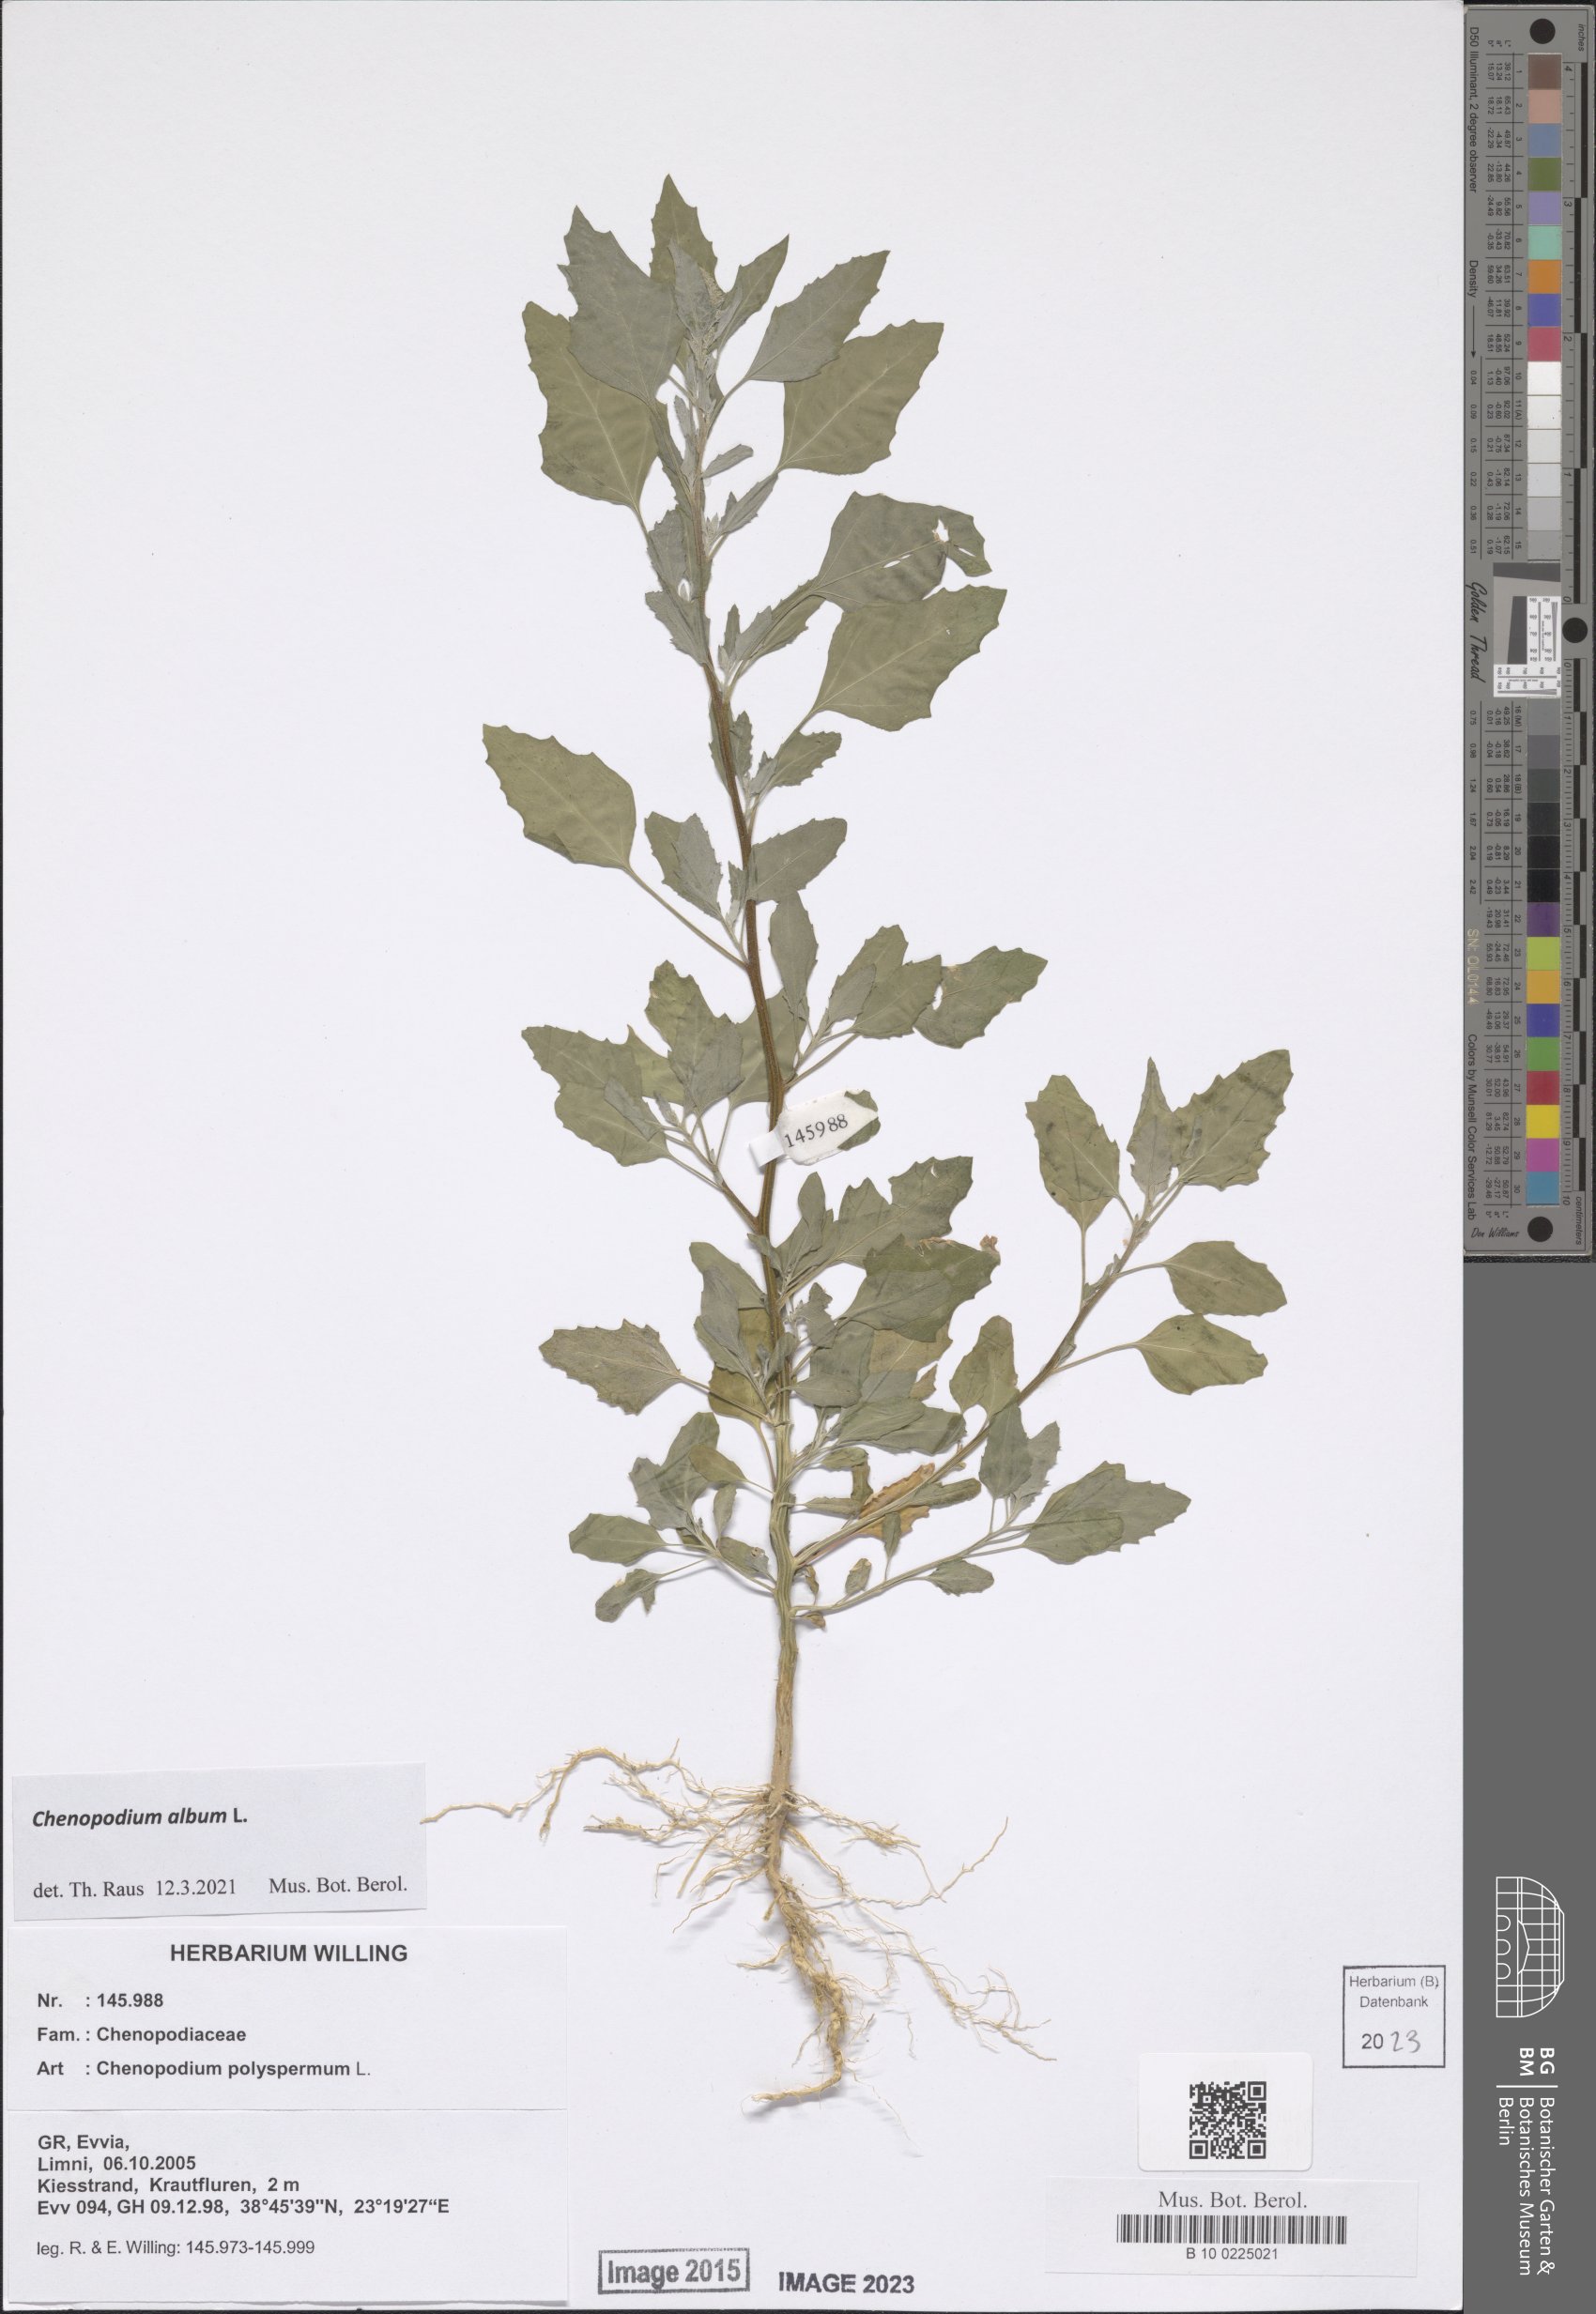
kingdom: Plantae
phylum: Tracheophyta
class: Magnoliopsida
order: Caryophyllales
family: Amaranthaceae
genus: Chenopodium
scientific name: Chenopodium album
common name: Fat-hen
